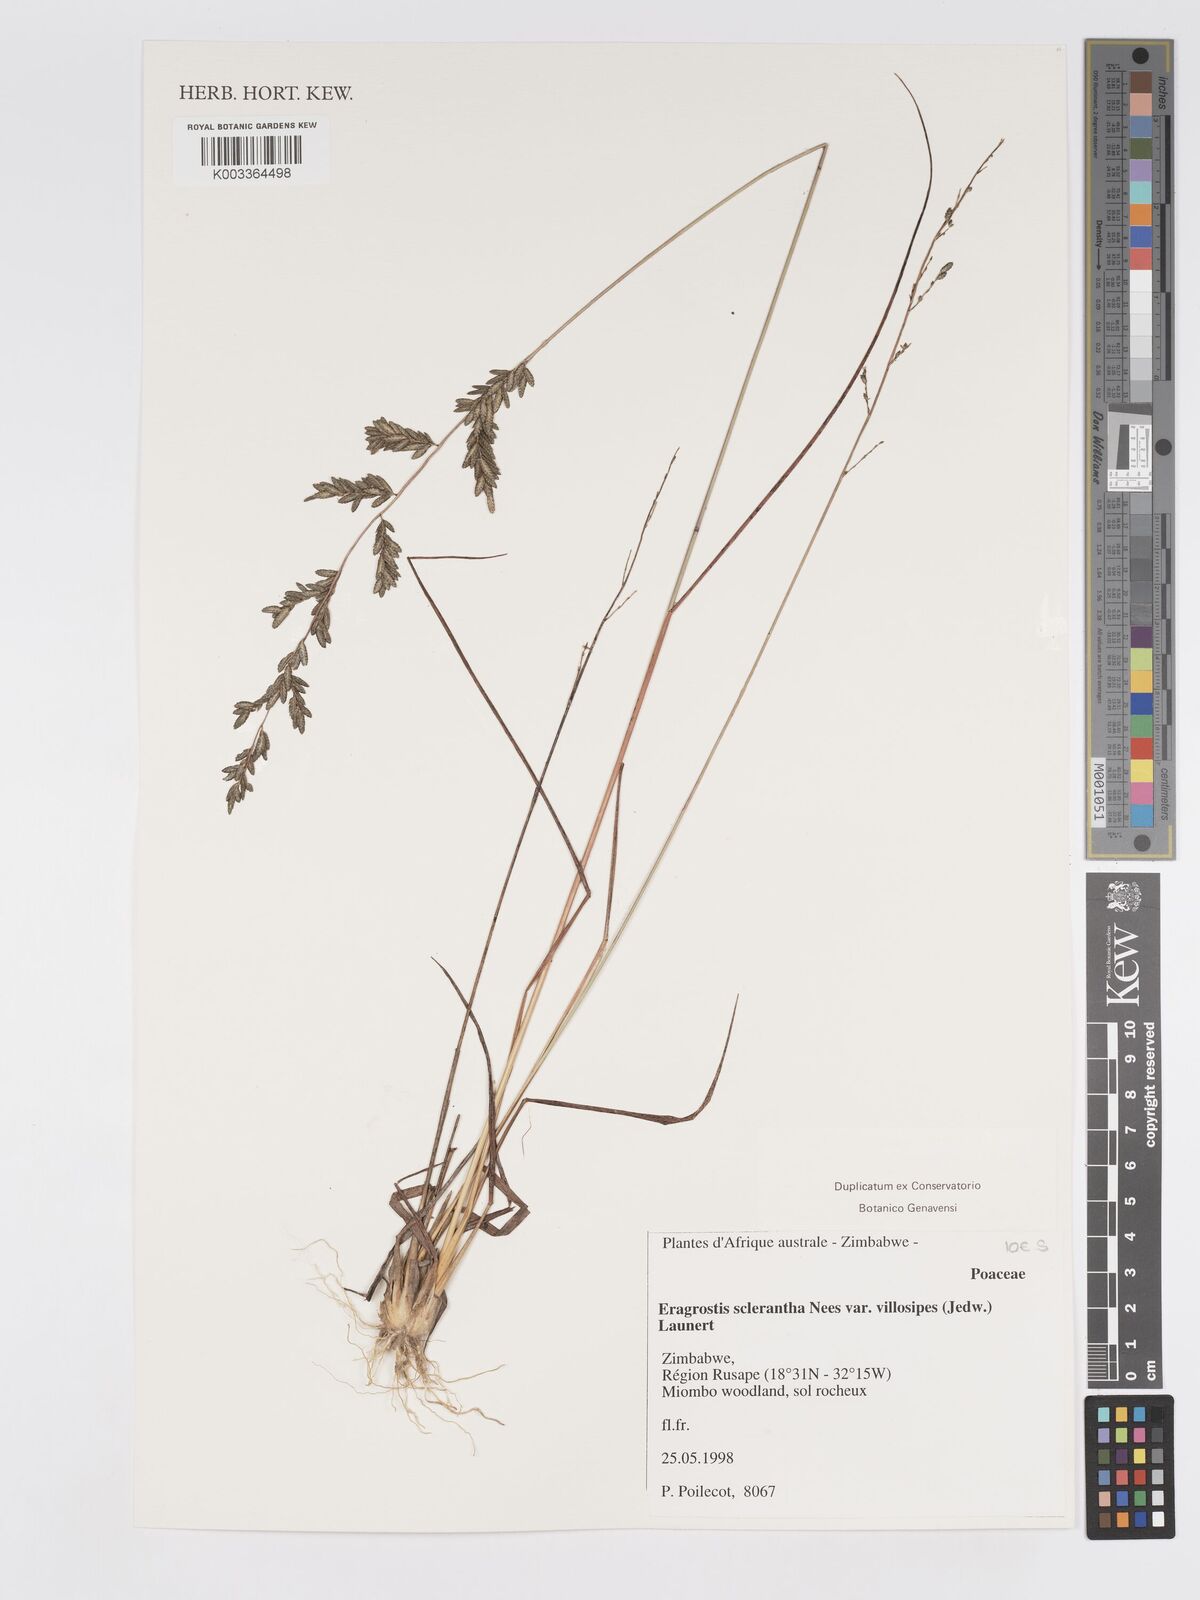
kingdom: Plantae
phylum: Tracheophyta
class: Liliopsida
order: Poales
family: Poaceae
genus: Eragrostis
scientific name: Eragrostis sclerantha
